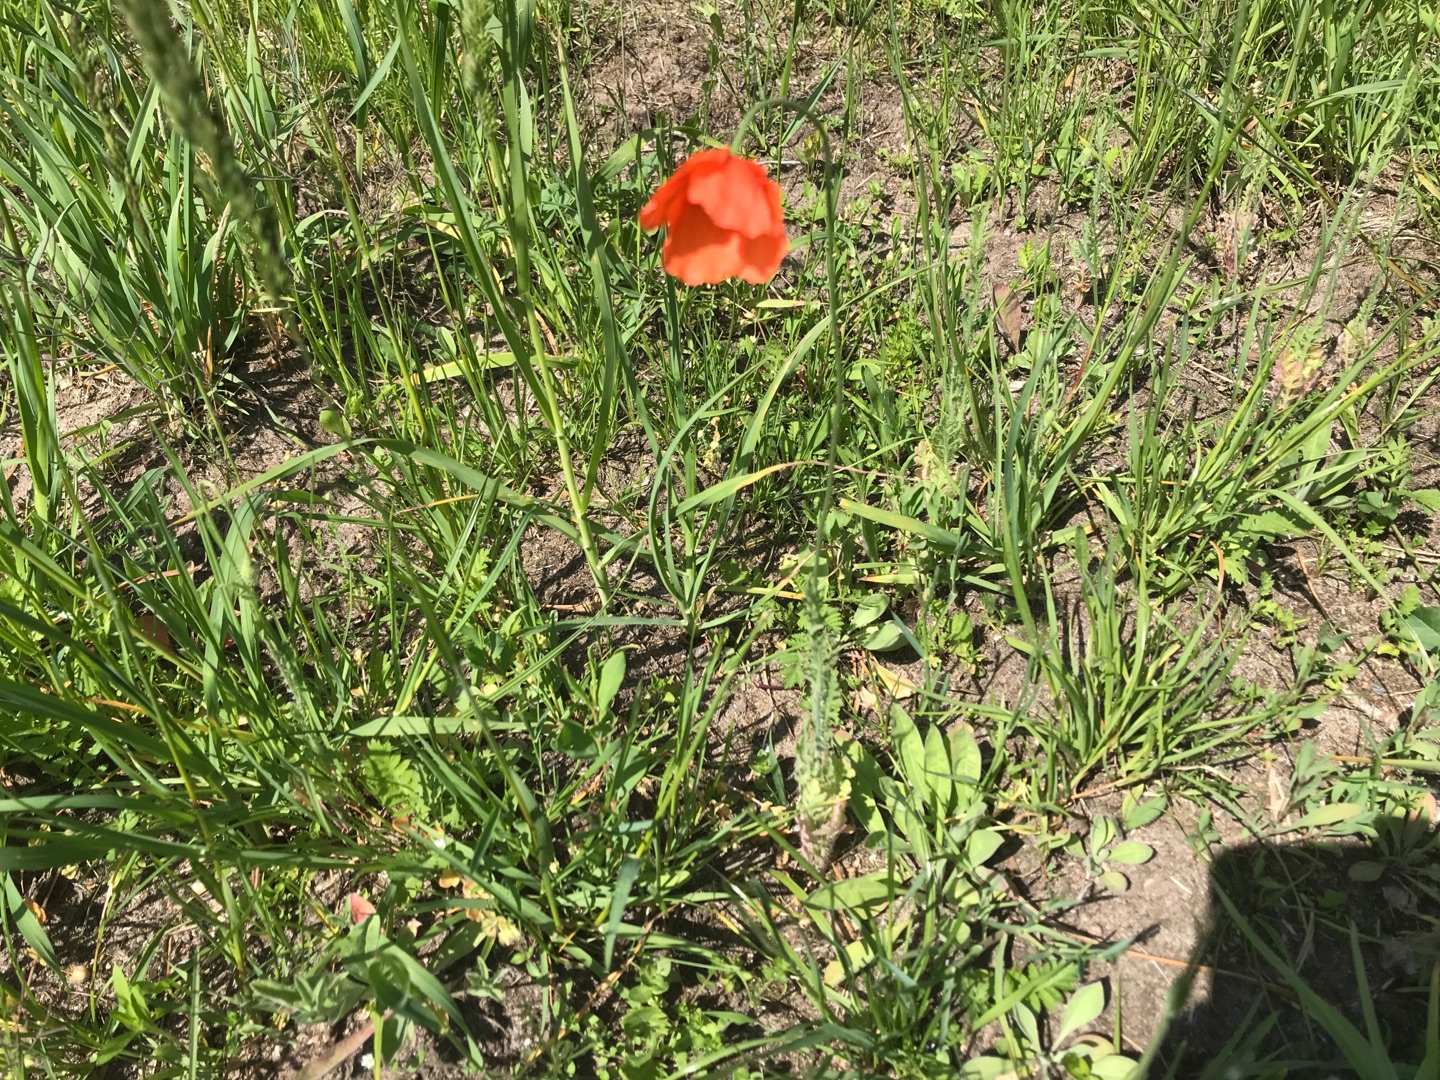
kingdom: Plantae
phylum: Tracheophyta
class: Magnoliopsida
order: Ranunculales
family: Papaveraceae
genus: Papaver
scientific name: Papaver dubium
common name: Gærde-valmue
